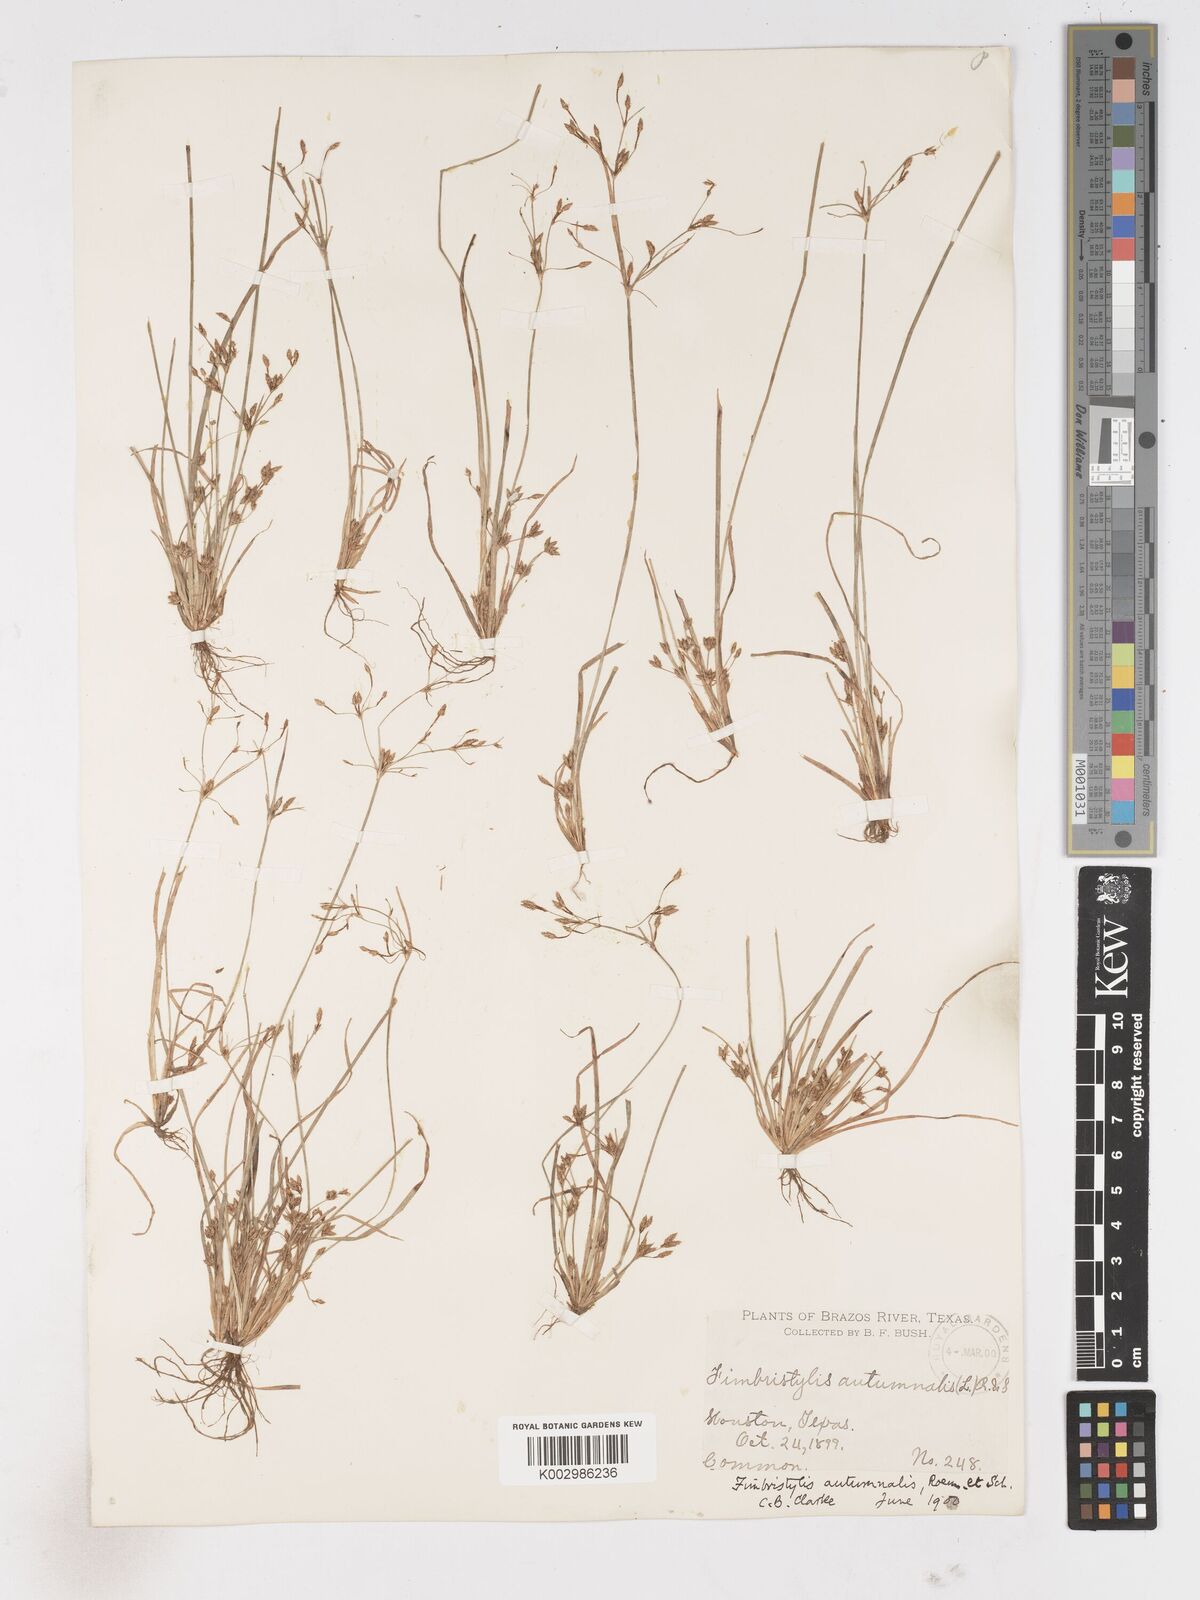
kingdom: Plantae
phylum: Tracheophyta
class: Liliopsida
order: Poales
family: Cyperaceae
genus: Fimbristylis
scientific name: Fimbristylis autumnalis
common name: Slender fimbristylis
